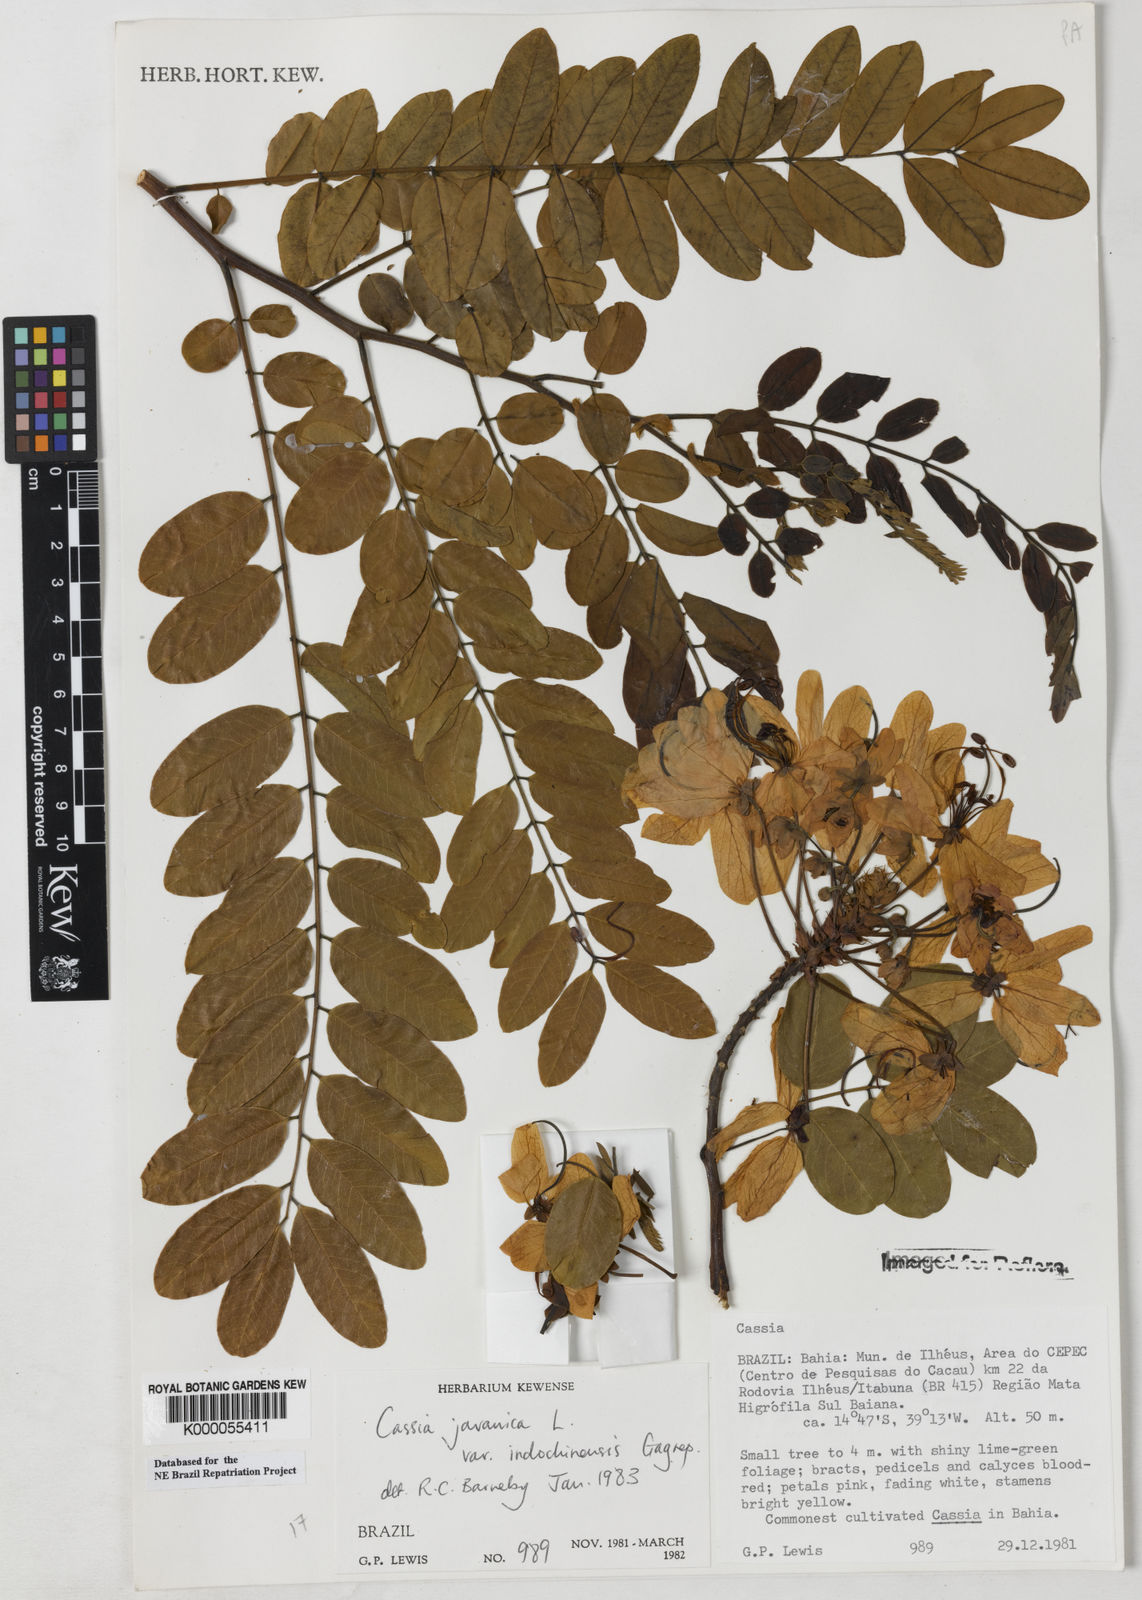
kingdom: Plantae
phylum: Tracheophyta
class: Magnoliopsida
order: Fabales
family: Fabaceae
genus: Cassia
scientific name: Cassia javanica
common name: Apple blossom
